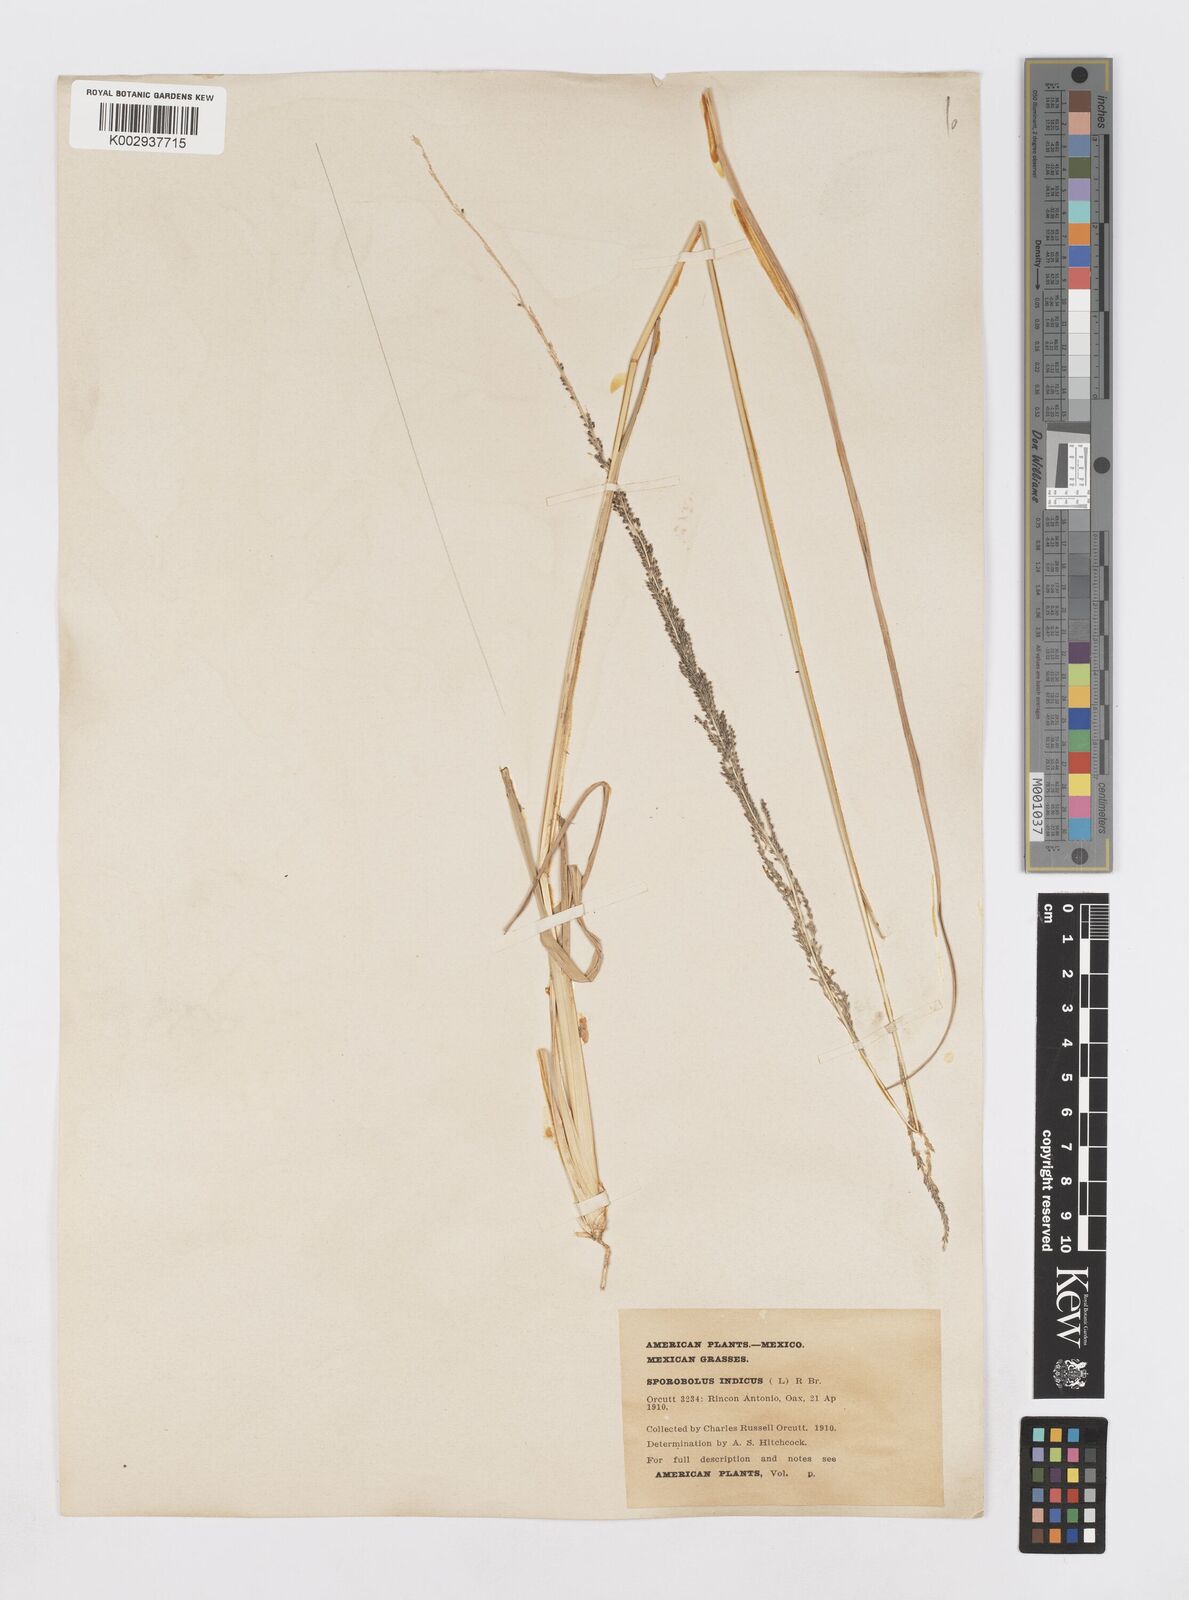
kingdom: Plantae
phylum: Tracheophyta
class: Liliopsida
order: Poales
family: Poaceae
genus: Sporobolus
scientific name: Sporobolus junceus
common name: Lizard grass
